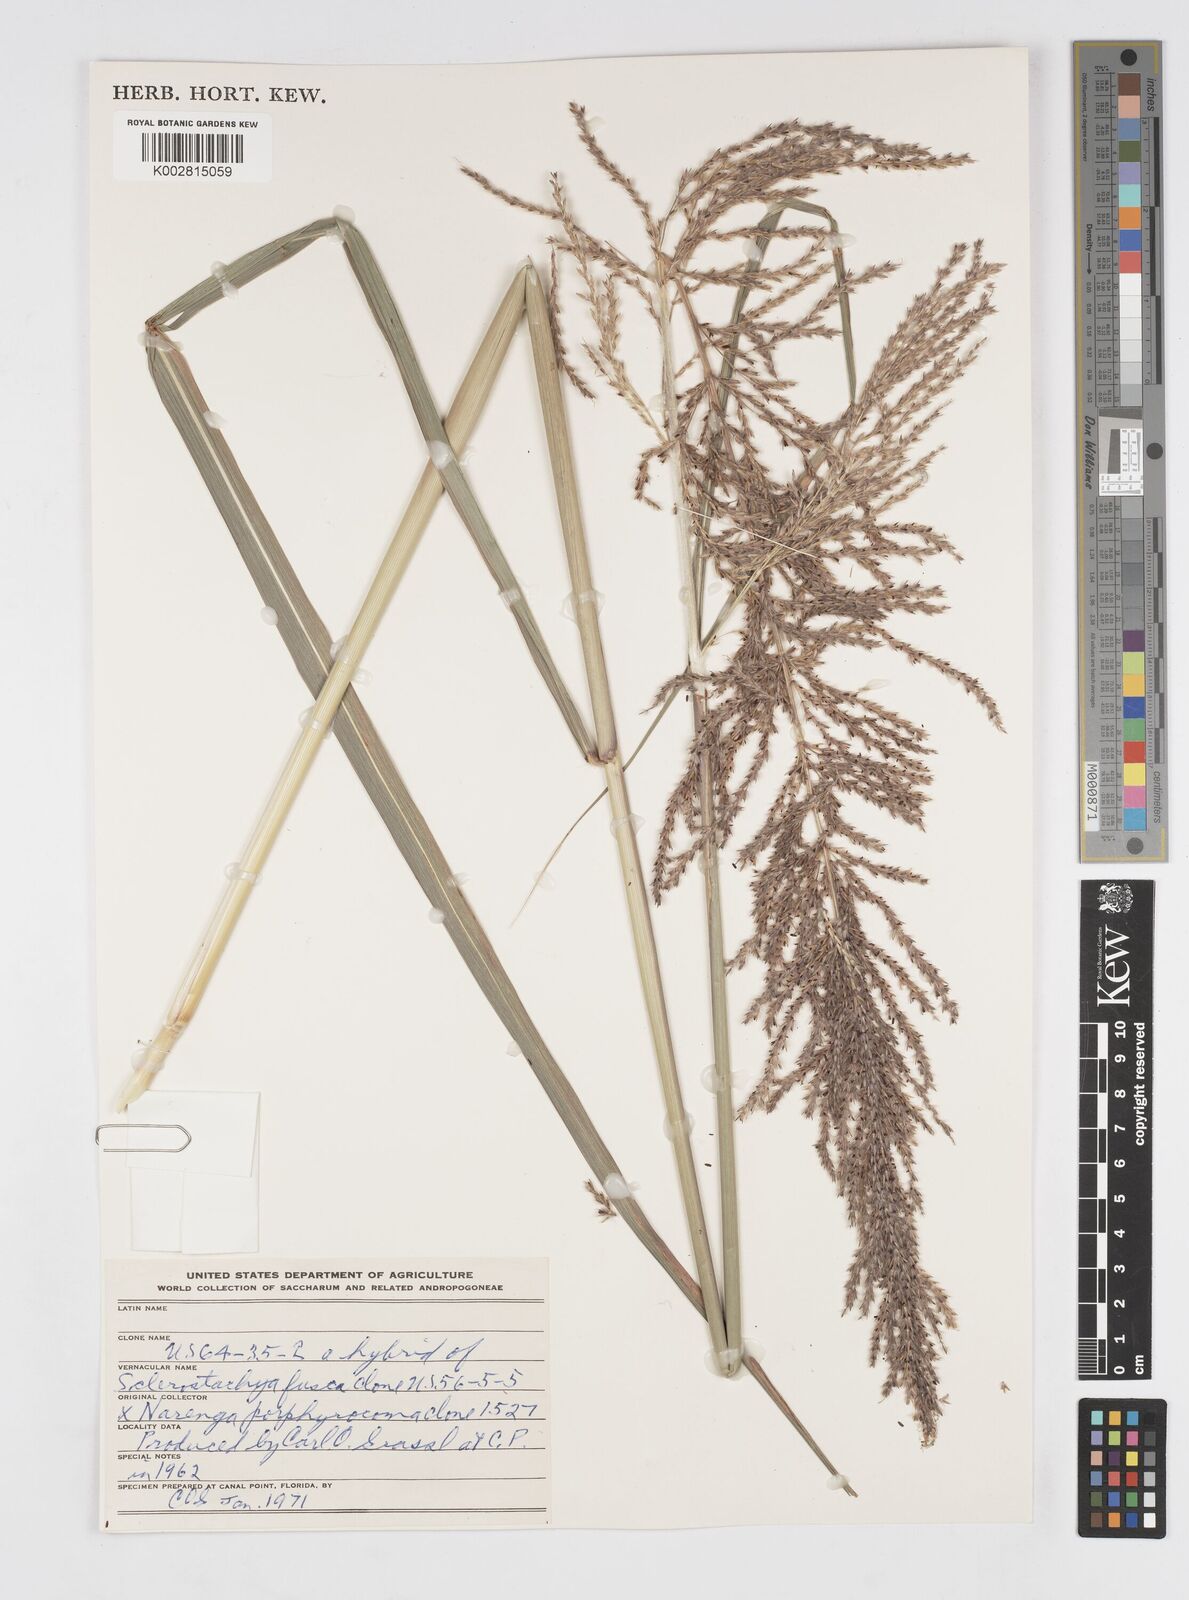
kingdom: Plantae
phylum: Tracheophyta
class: Liliopsida
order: Poales
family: Poaceae
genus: Saccharum
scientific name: Saccharum
